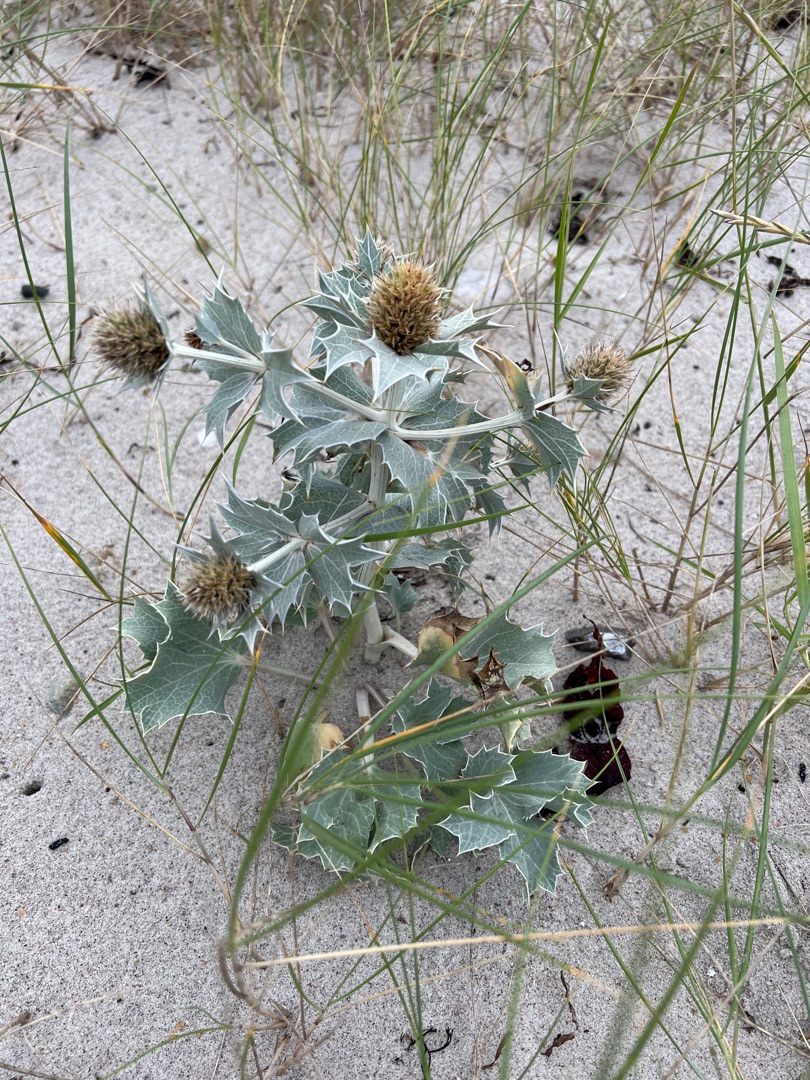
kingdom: Plantae
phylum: Tracheophyta
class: Magnoliopsida
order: Apiales
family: Apiaceae
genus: Eryngium
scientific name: Eryngium maritimum
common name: Strand-mandstro
